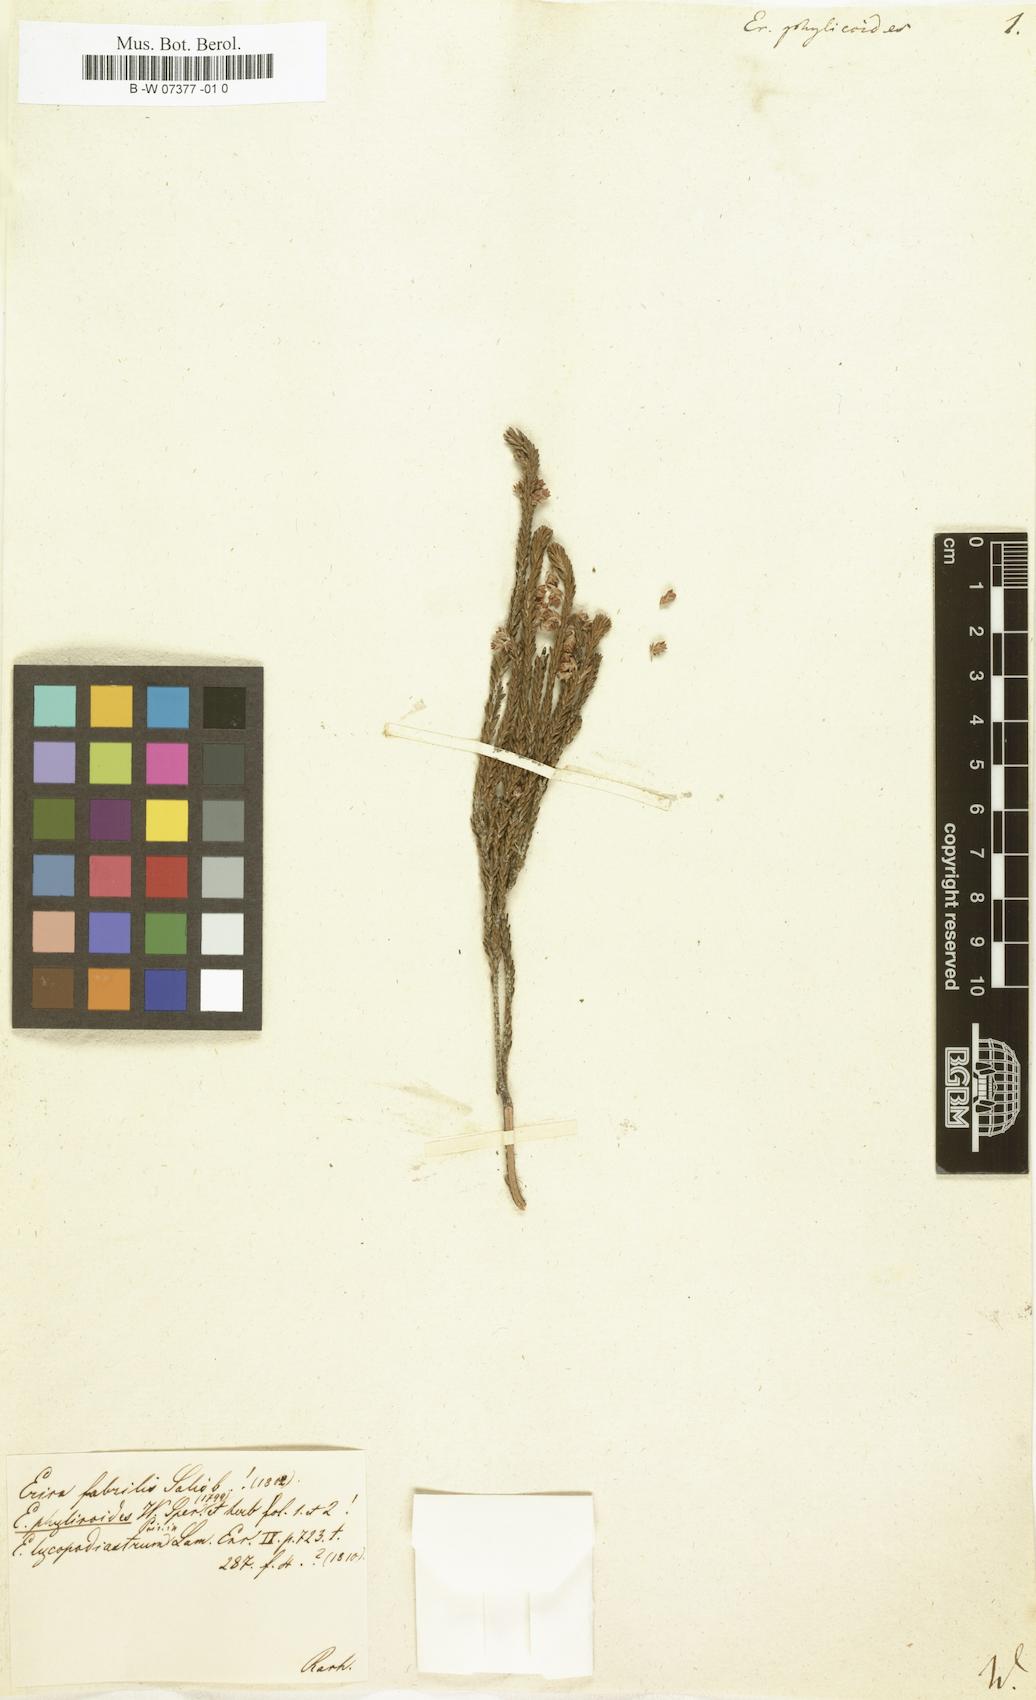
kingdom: Plantae
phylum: Tracheophyta
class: Magnoliopsida
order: Ericales
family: Ericaceae
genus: Erica
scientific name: Erica pulchella
